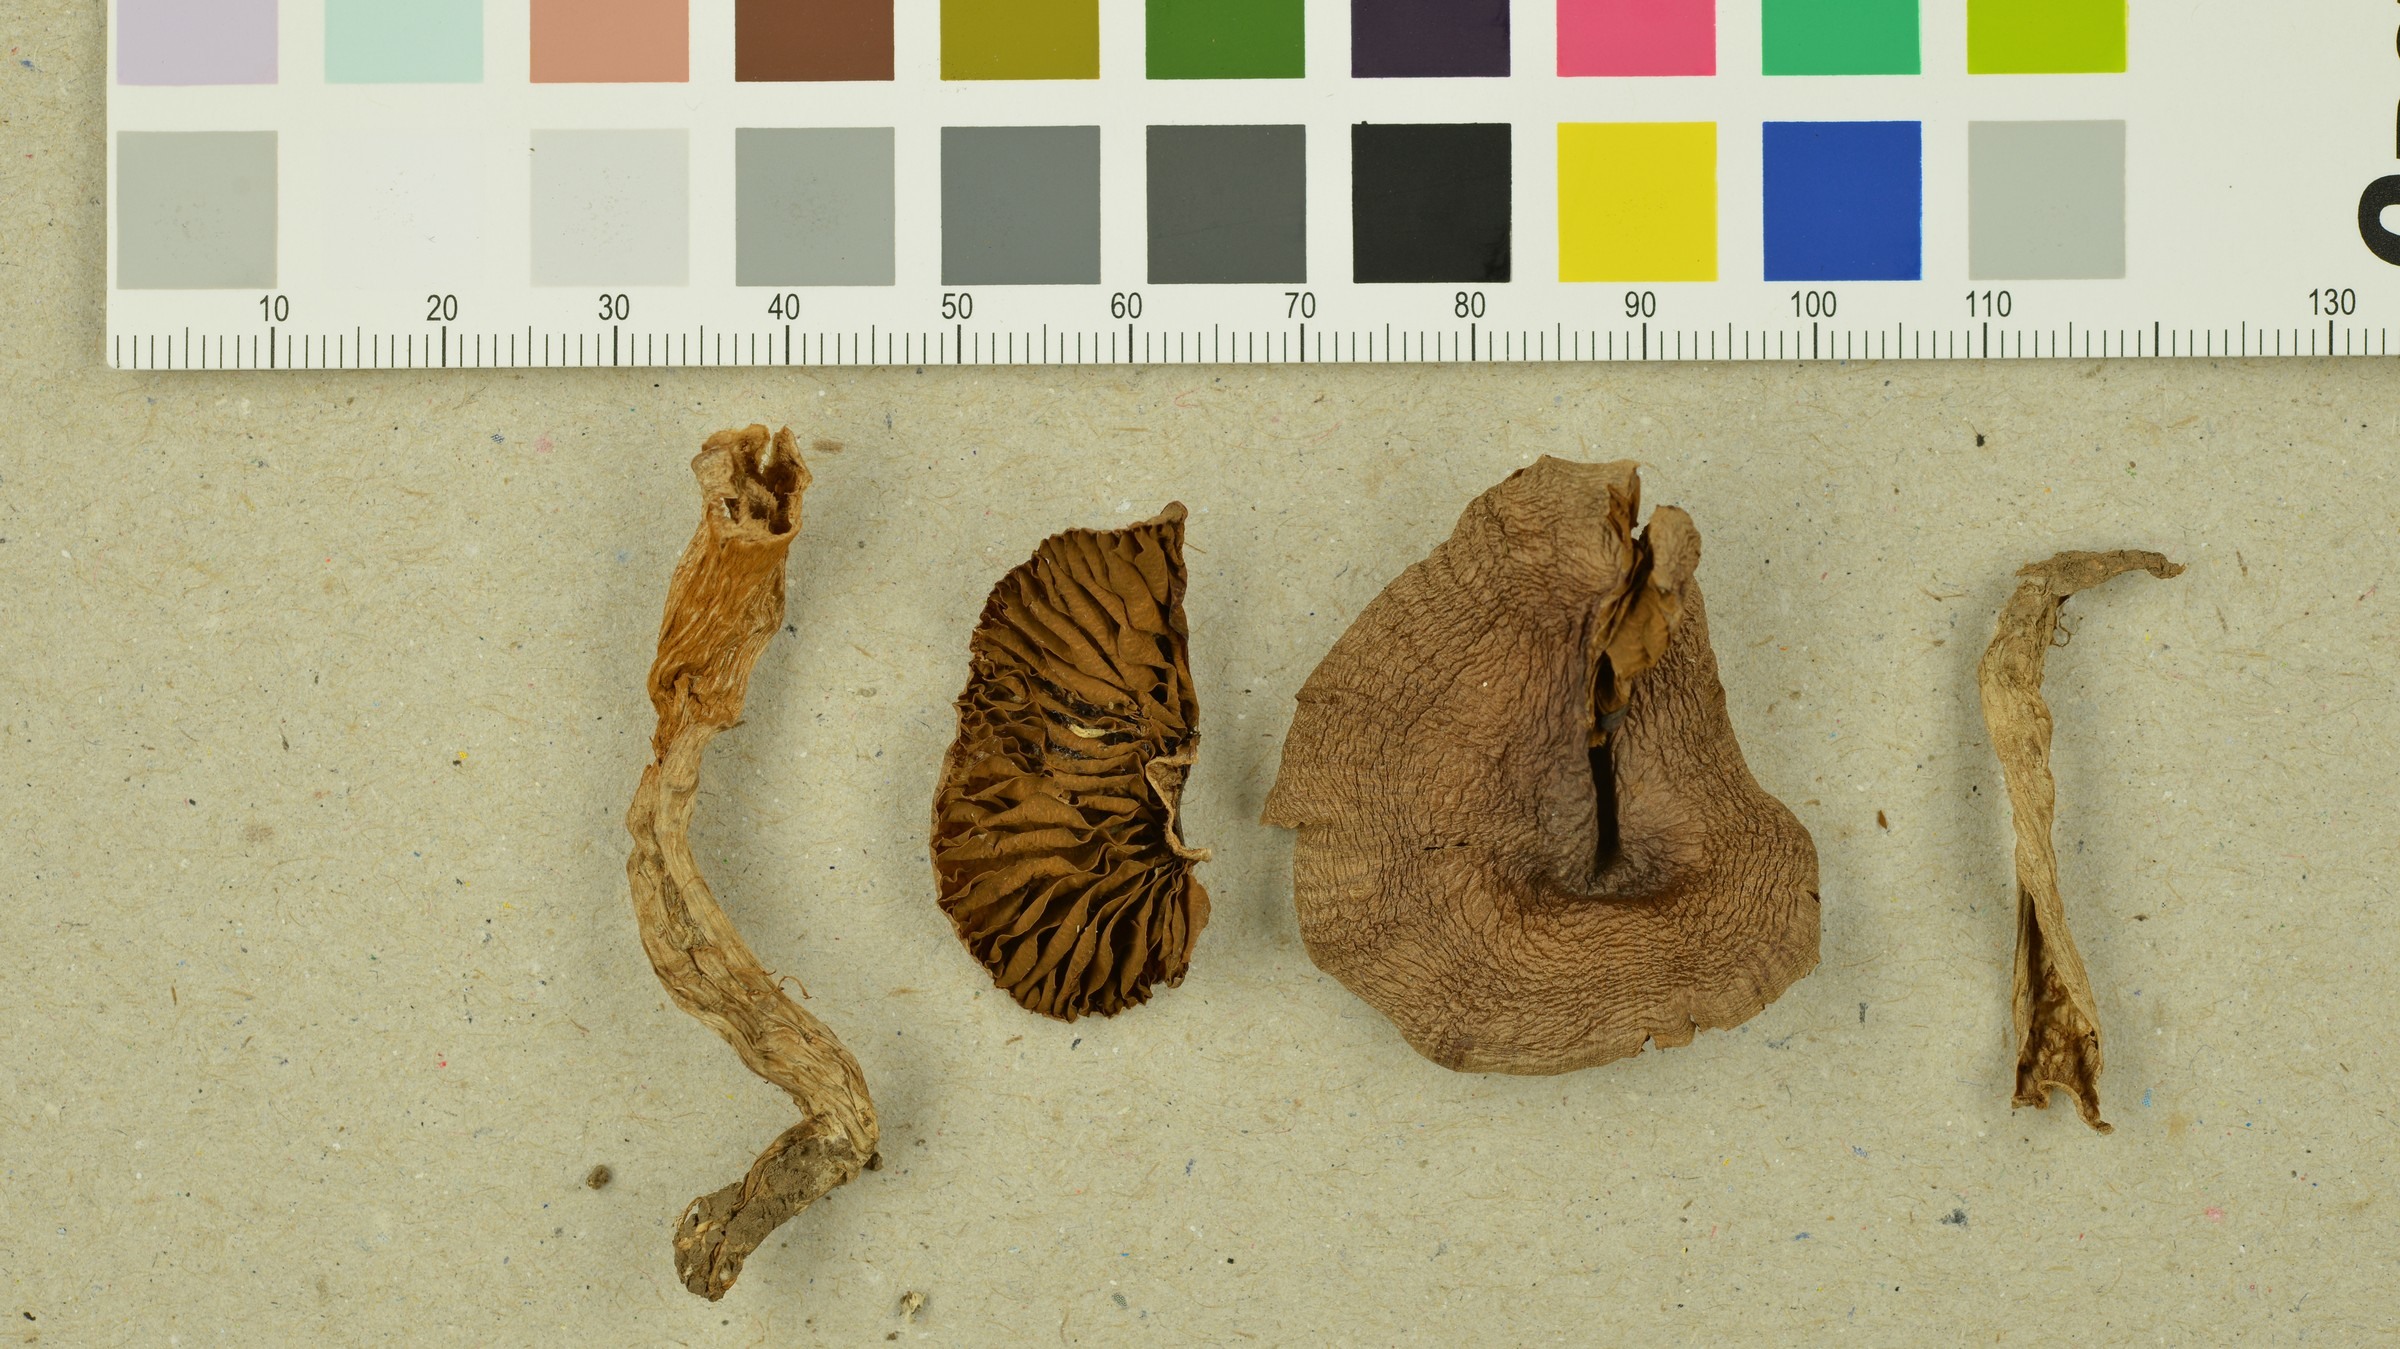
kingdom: Fungi
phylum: Basidiomycota
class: Agaricomycetes
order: Agaricales
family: Cortinariaceae
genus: Cortinarius
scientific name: Cortinarius fulvescens
